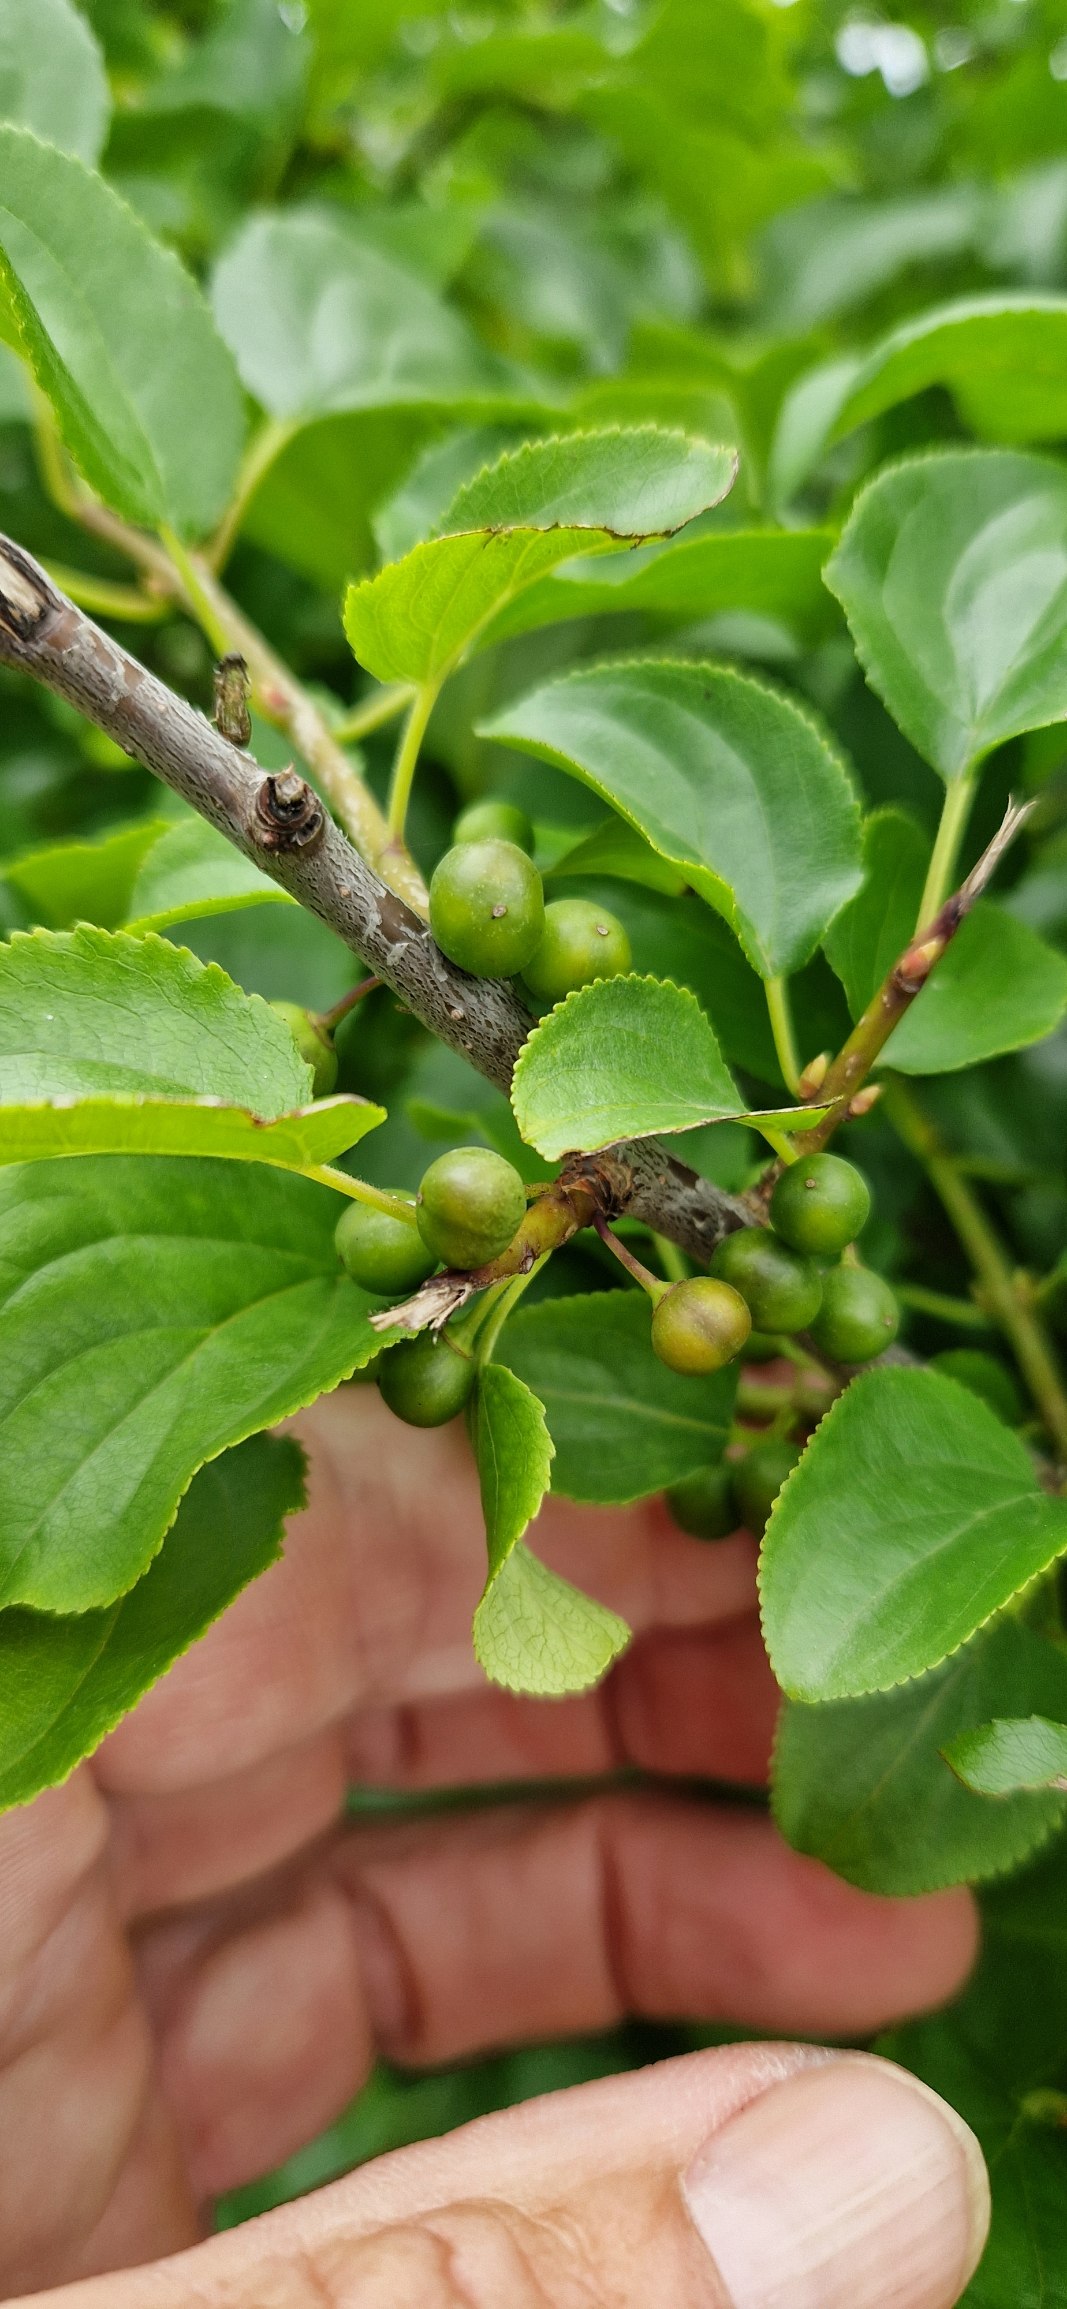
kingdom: Plantae
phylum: Tracheophyta
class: Magnoliopsida
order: Rosales
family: Rhamnaceae
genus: Rhamnus
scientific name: Rhamnus cathartica
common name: Vrietorn
